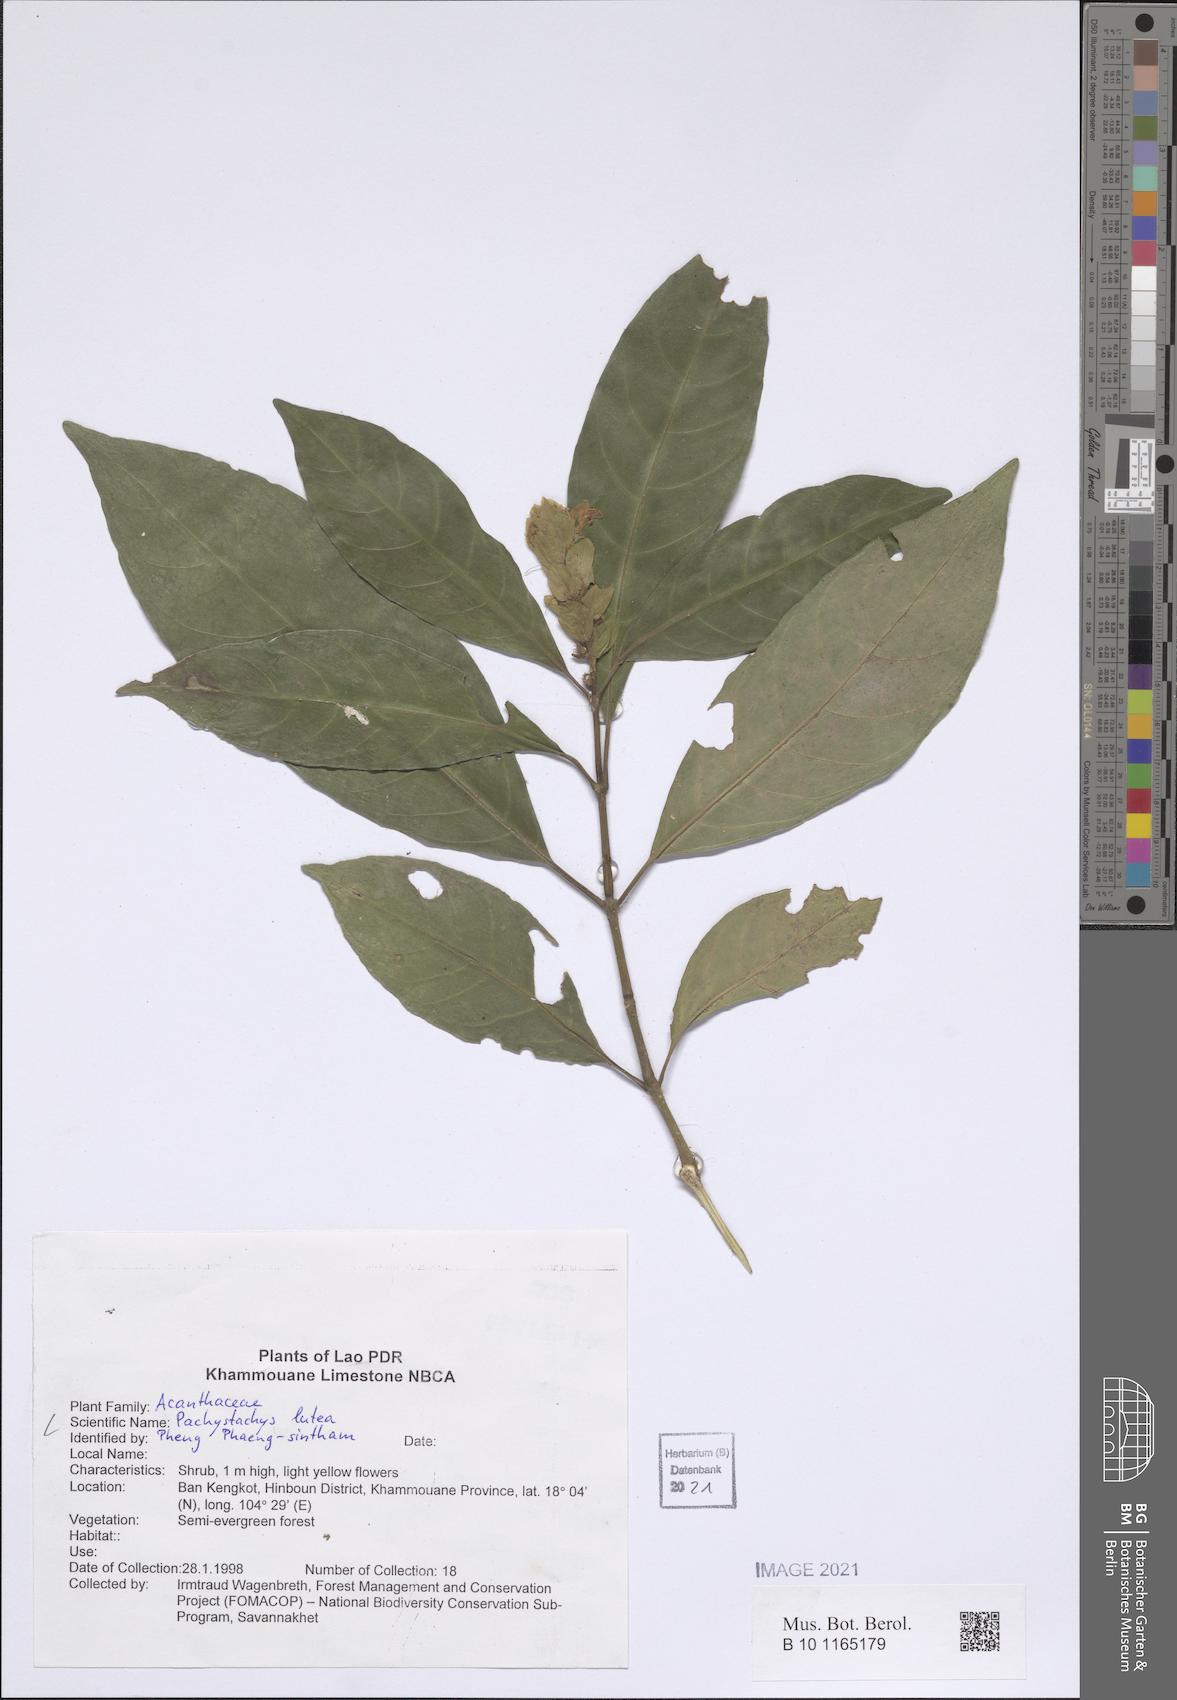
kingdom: Plantae
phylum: Tracheophyta
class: Magnoliopsida
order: Lamiales
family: Acanthaceae
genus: Pachystachys
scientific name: Pachystachys lutea
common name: Golden shrimp-plant
